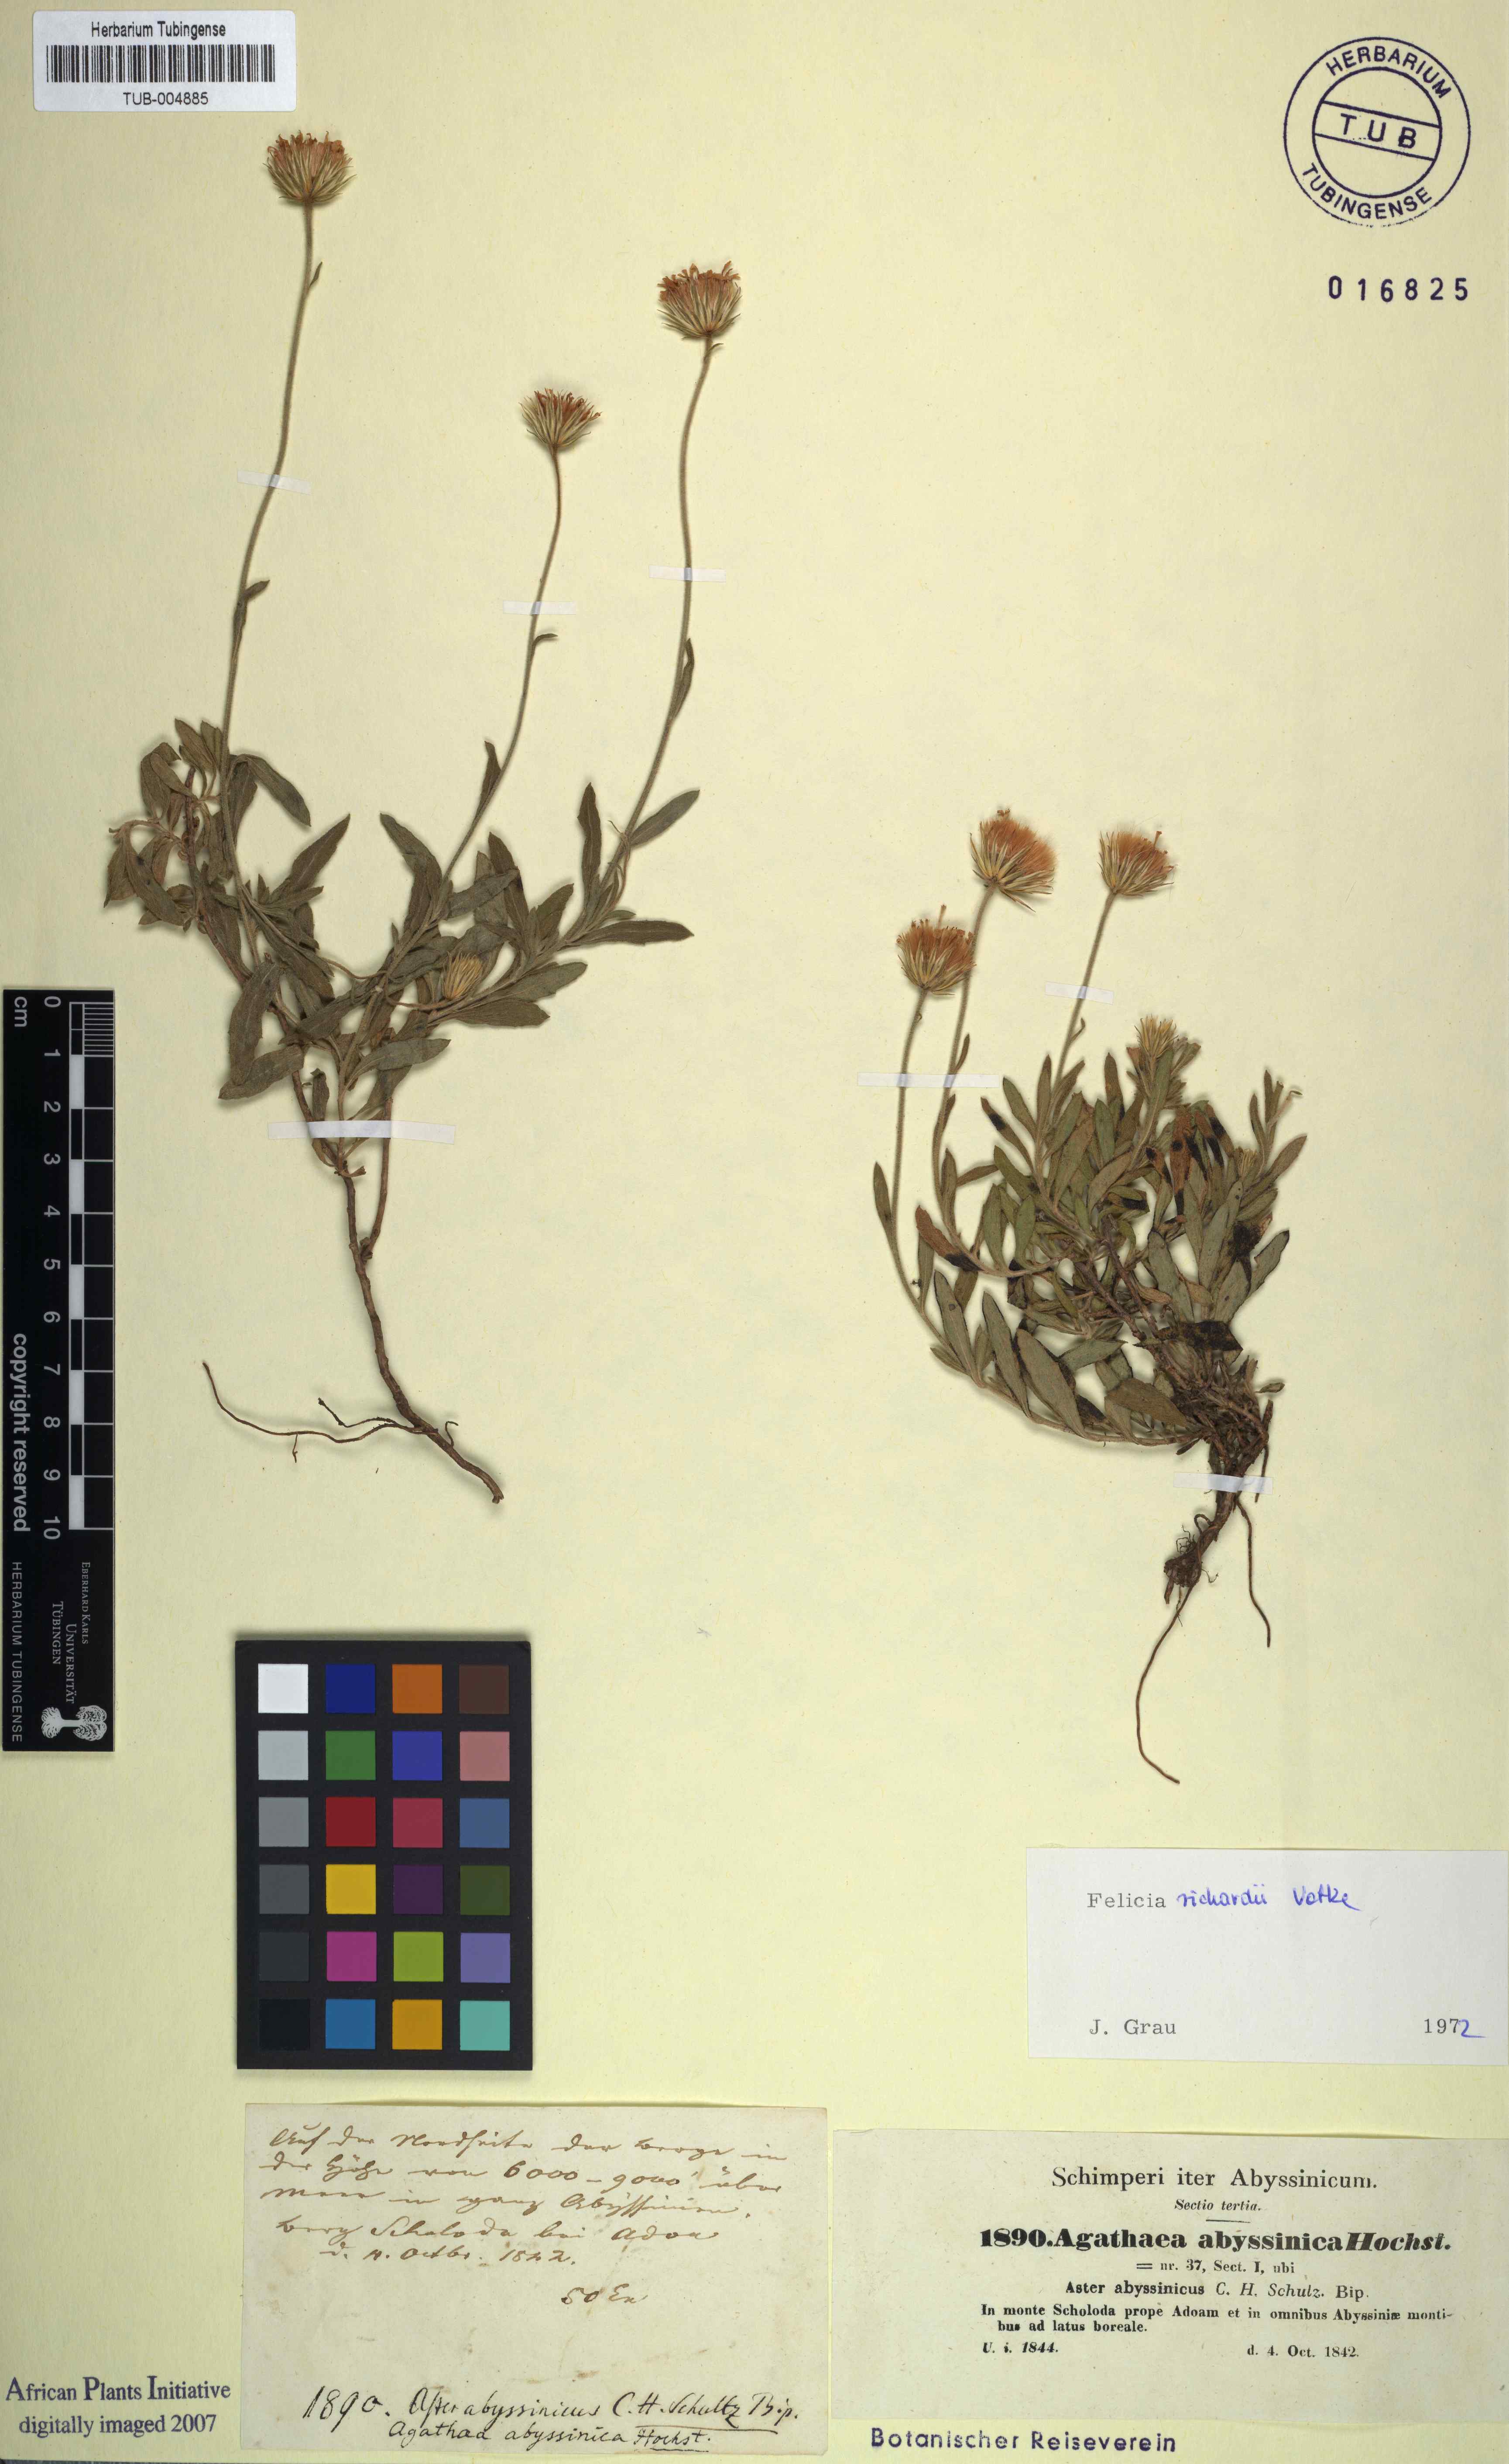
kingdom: Plantae
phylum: Tracheophyta
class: Magnoliopsida
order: Asterales
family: Asteraceae
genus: Felicia
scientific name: Felicia dentata
